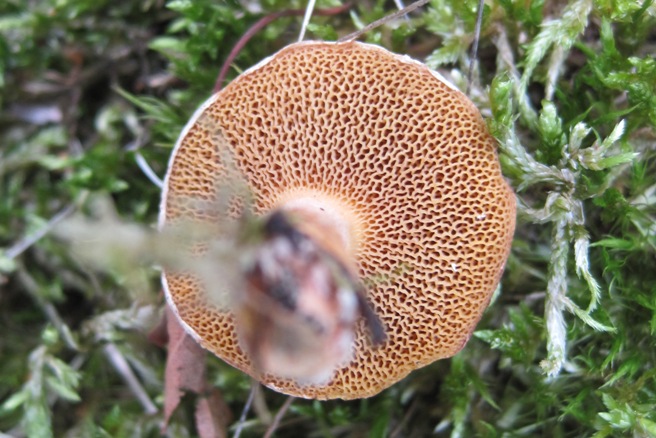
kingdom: Fungi
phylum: Basidiomycota
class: Agaricomycetes
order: Boletales
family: Suillaceae
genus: Suillus
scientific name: Suillus bovinus
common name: grovporet slimrørhat
